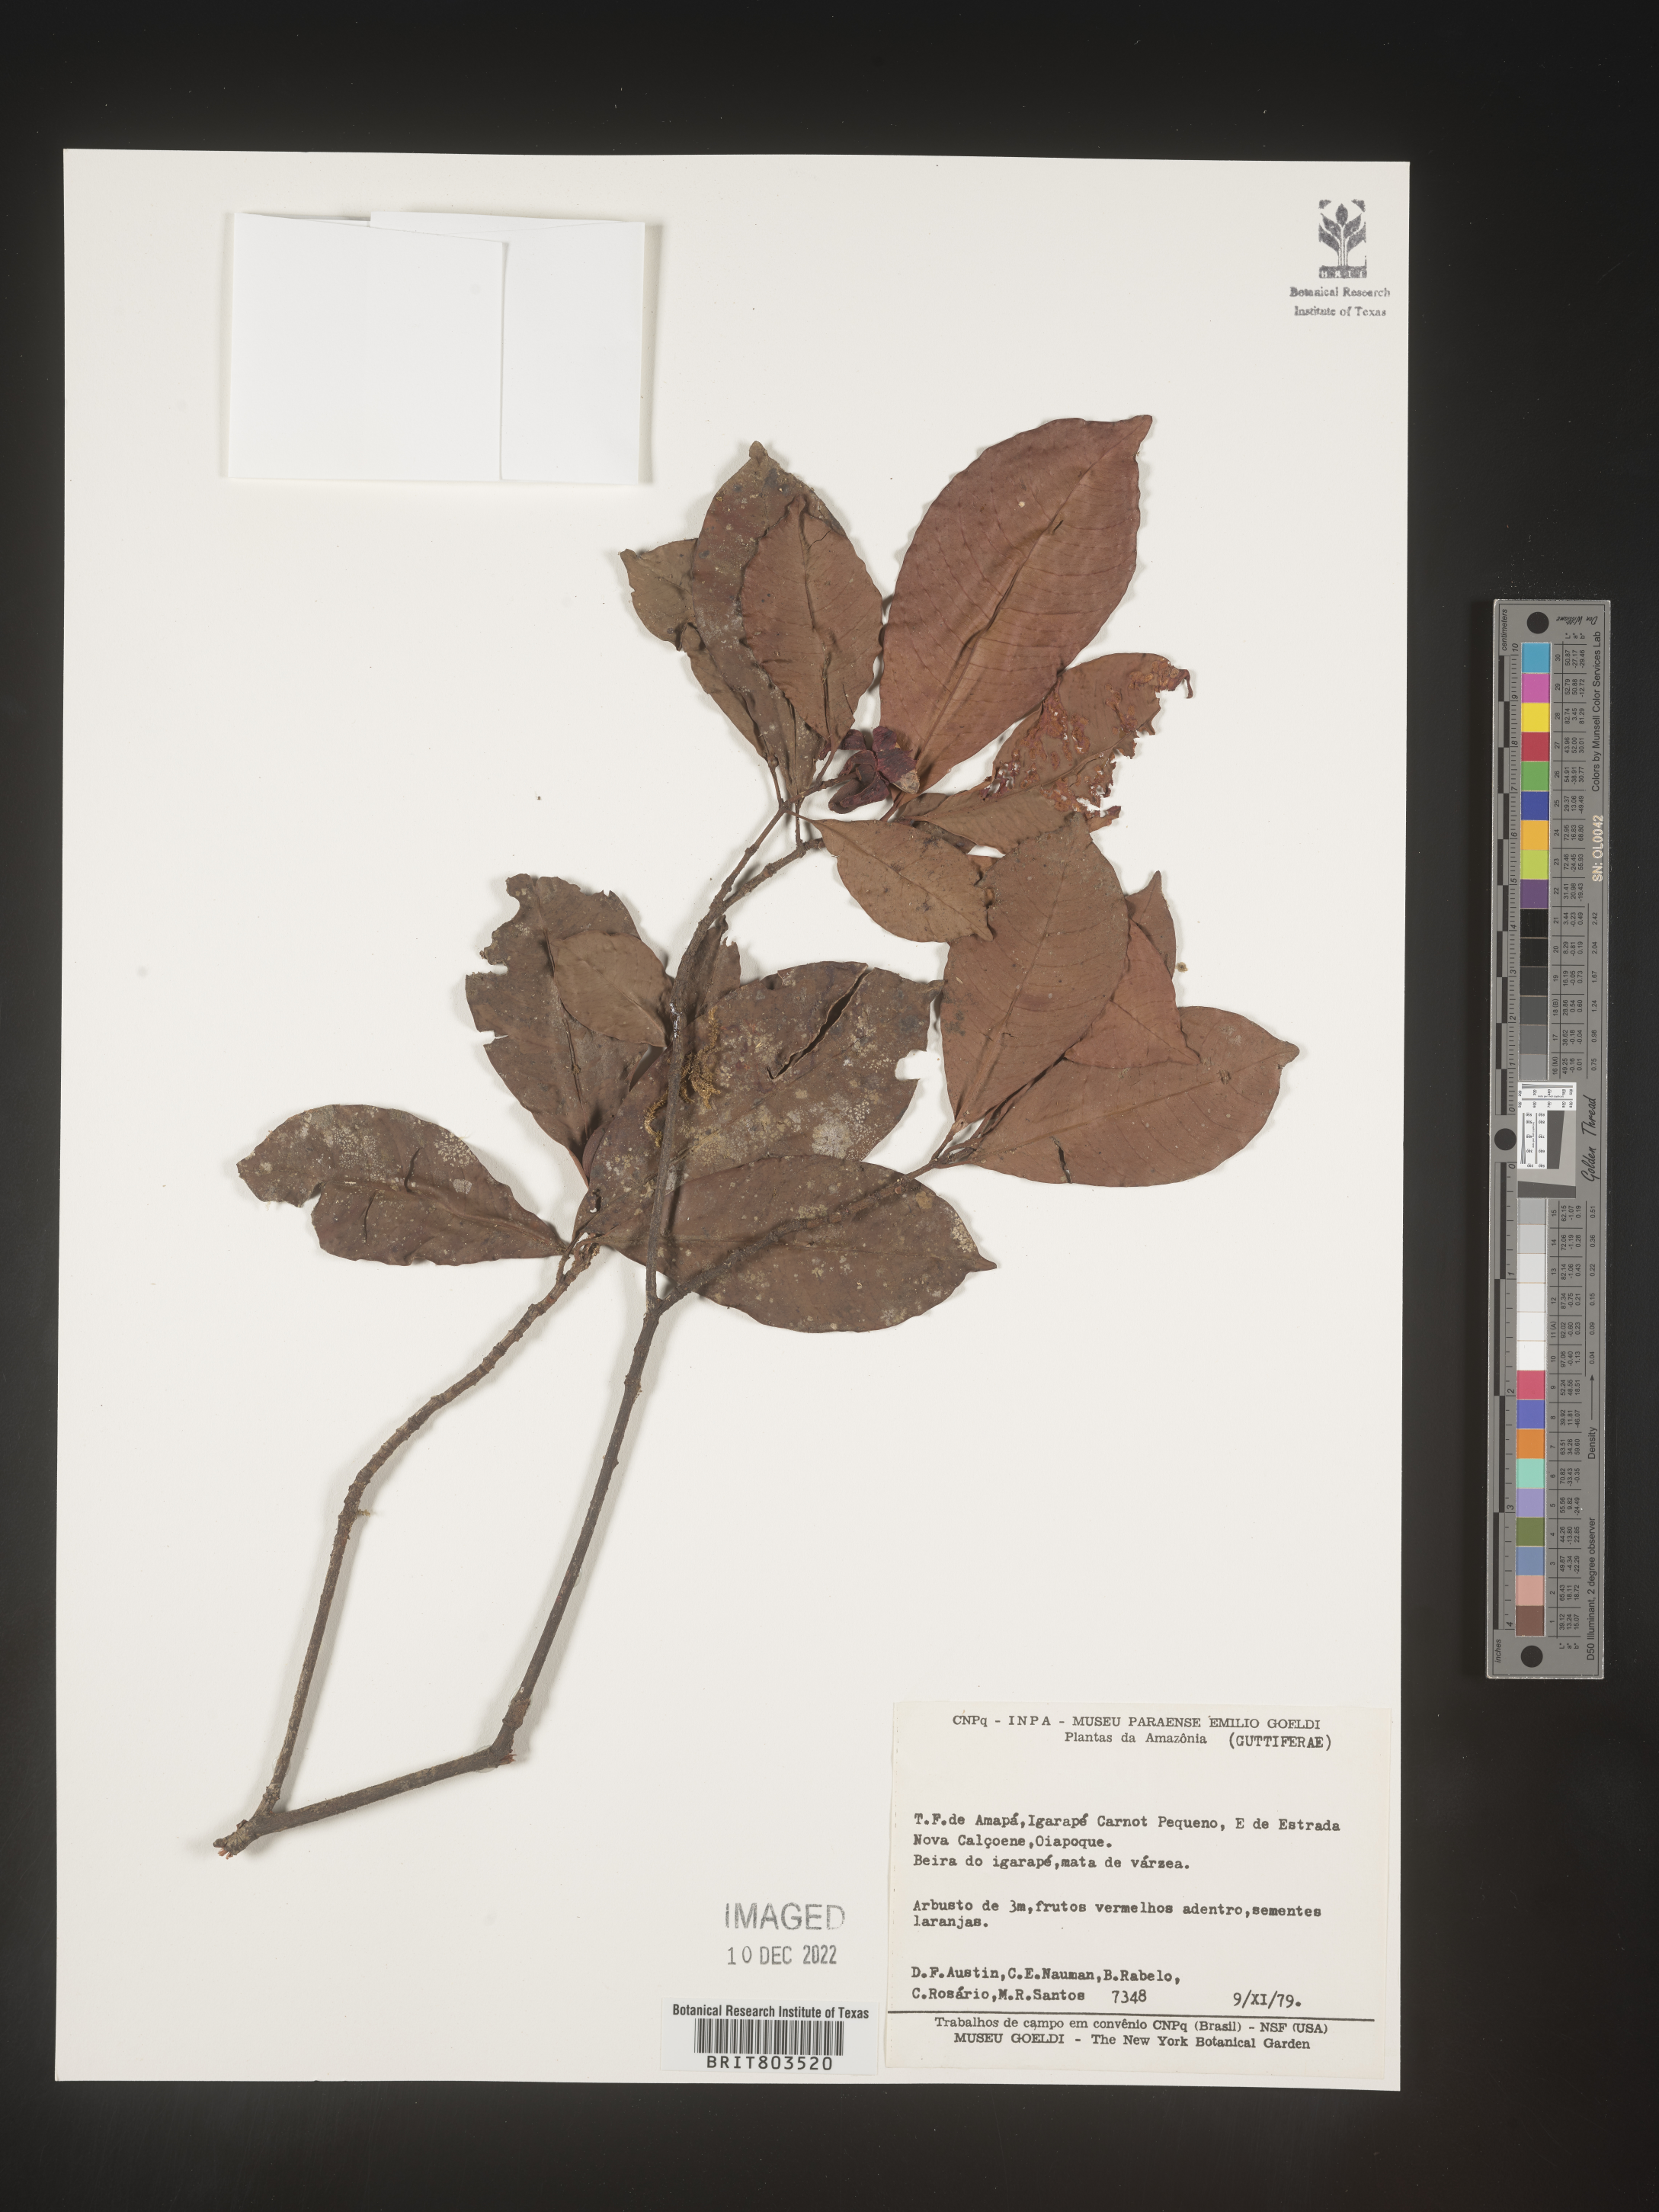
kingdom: Plantae
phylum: Tracheophyta
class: Magnoliopsida
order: Malpighiales
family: Clusiaceae
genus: Tovomita
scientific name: Tovomita
